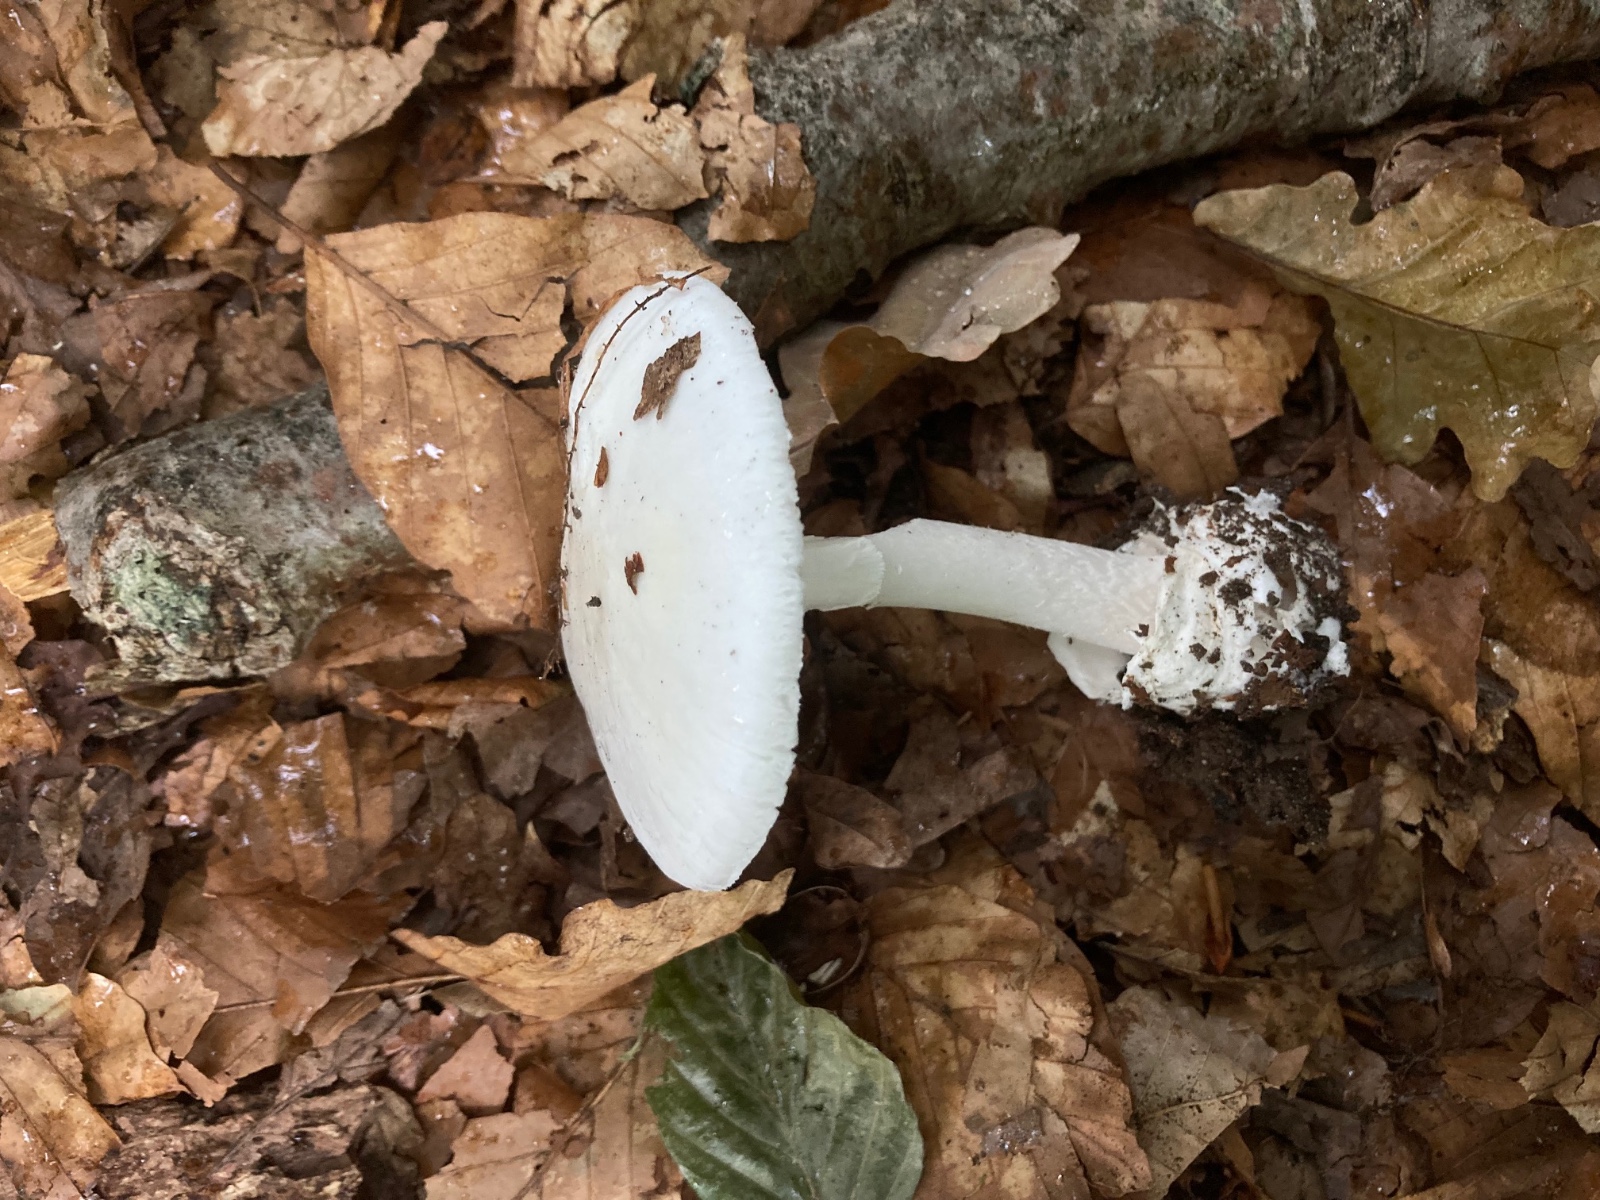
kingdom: Fungi
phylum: Basidiomycota
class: Agaricomycetes
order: Agaricales
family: Amanitaceae
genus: Amanita
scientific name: Amanita phalloides
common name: Death cap
